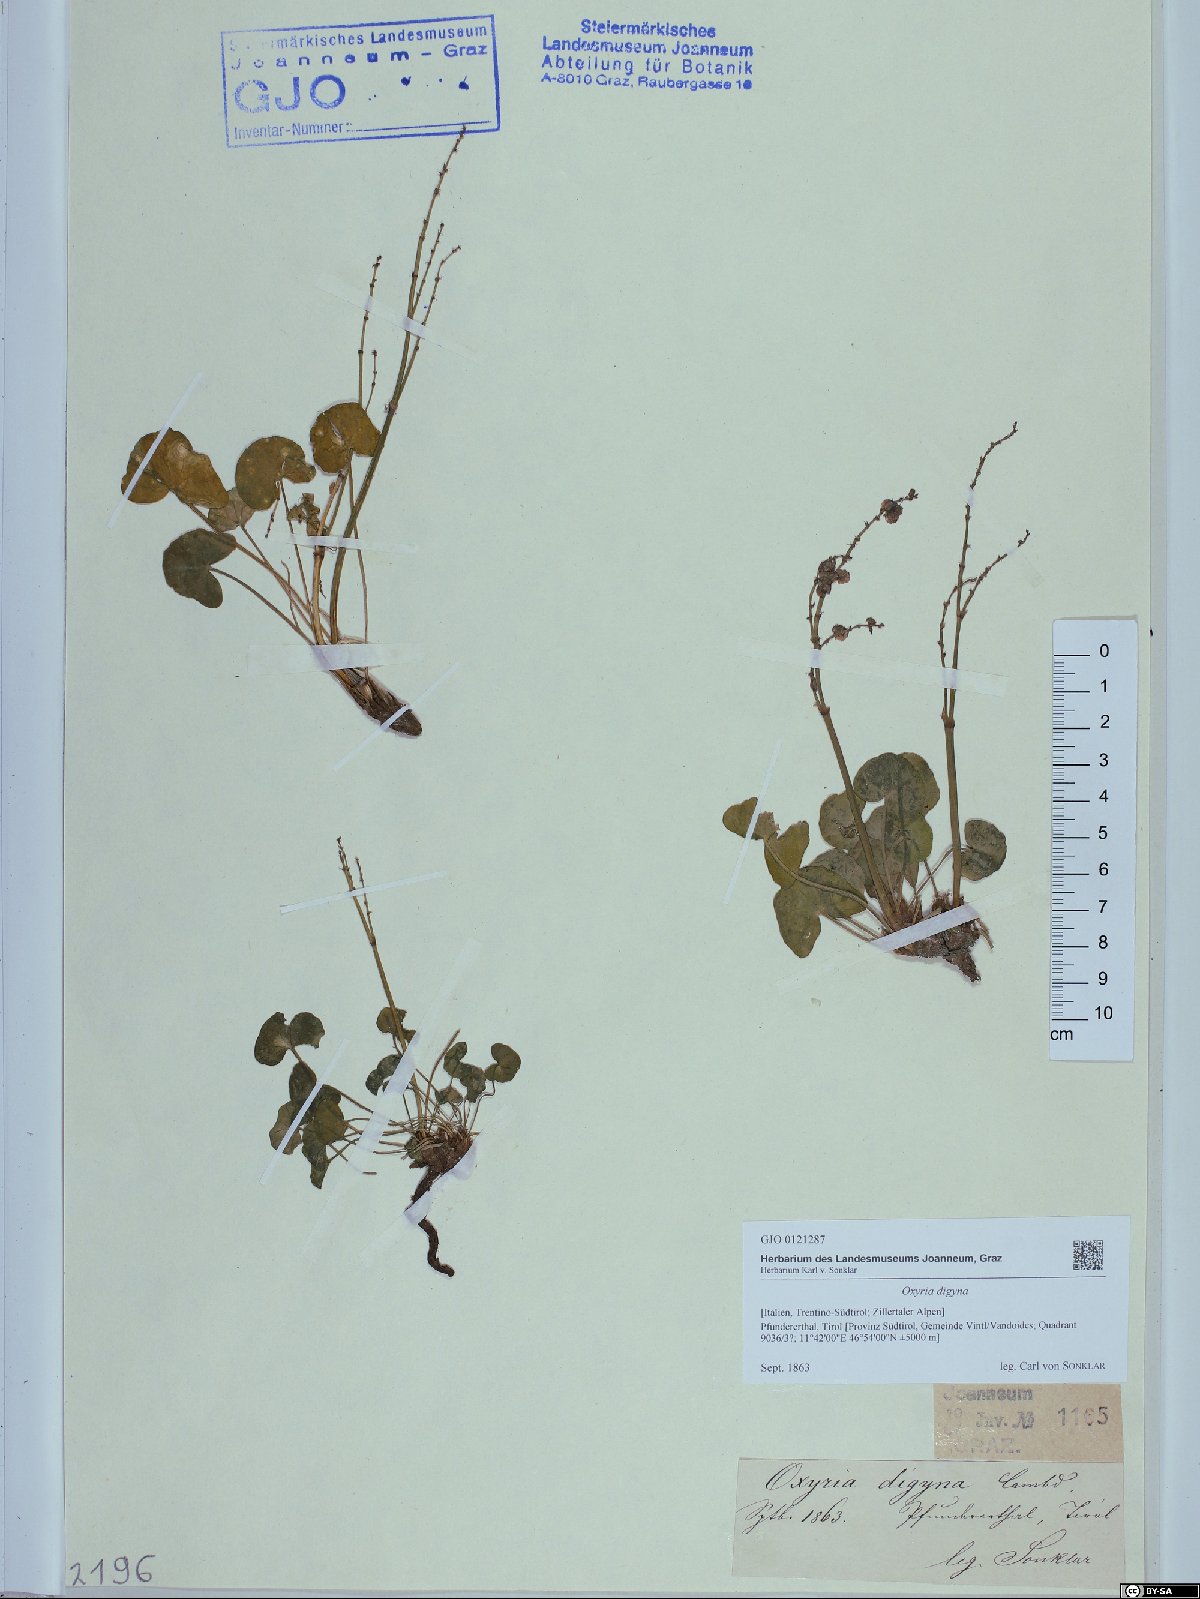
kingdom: Plantae
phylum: Tracheophyta
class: Magnoliopsida
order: Caryophyllales
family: Polygonaceae
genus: Oxyria
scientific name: Oxyria digyna
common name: Alpine mountain-sorrel
